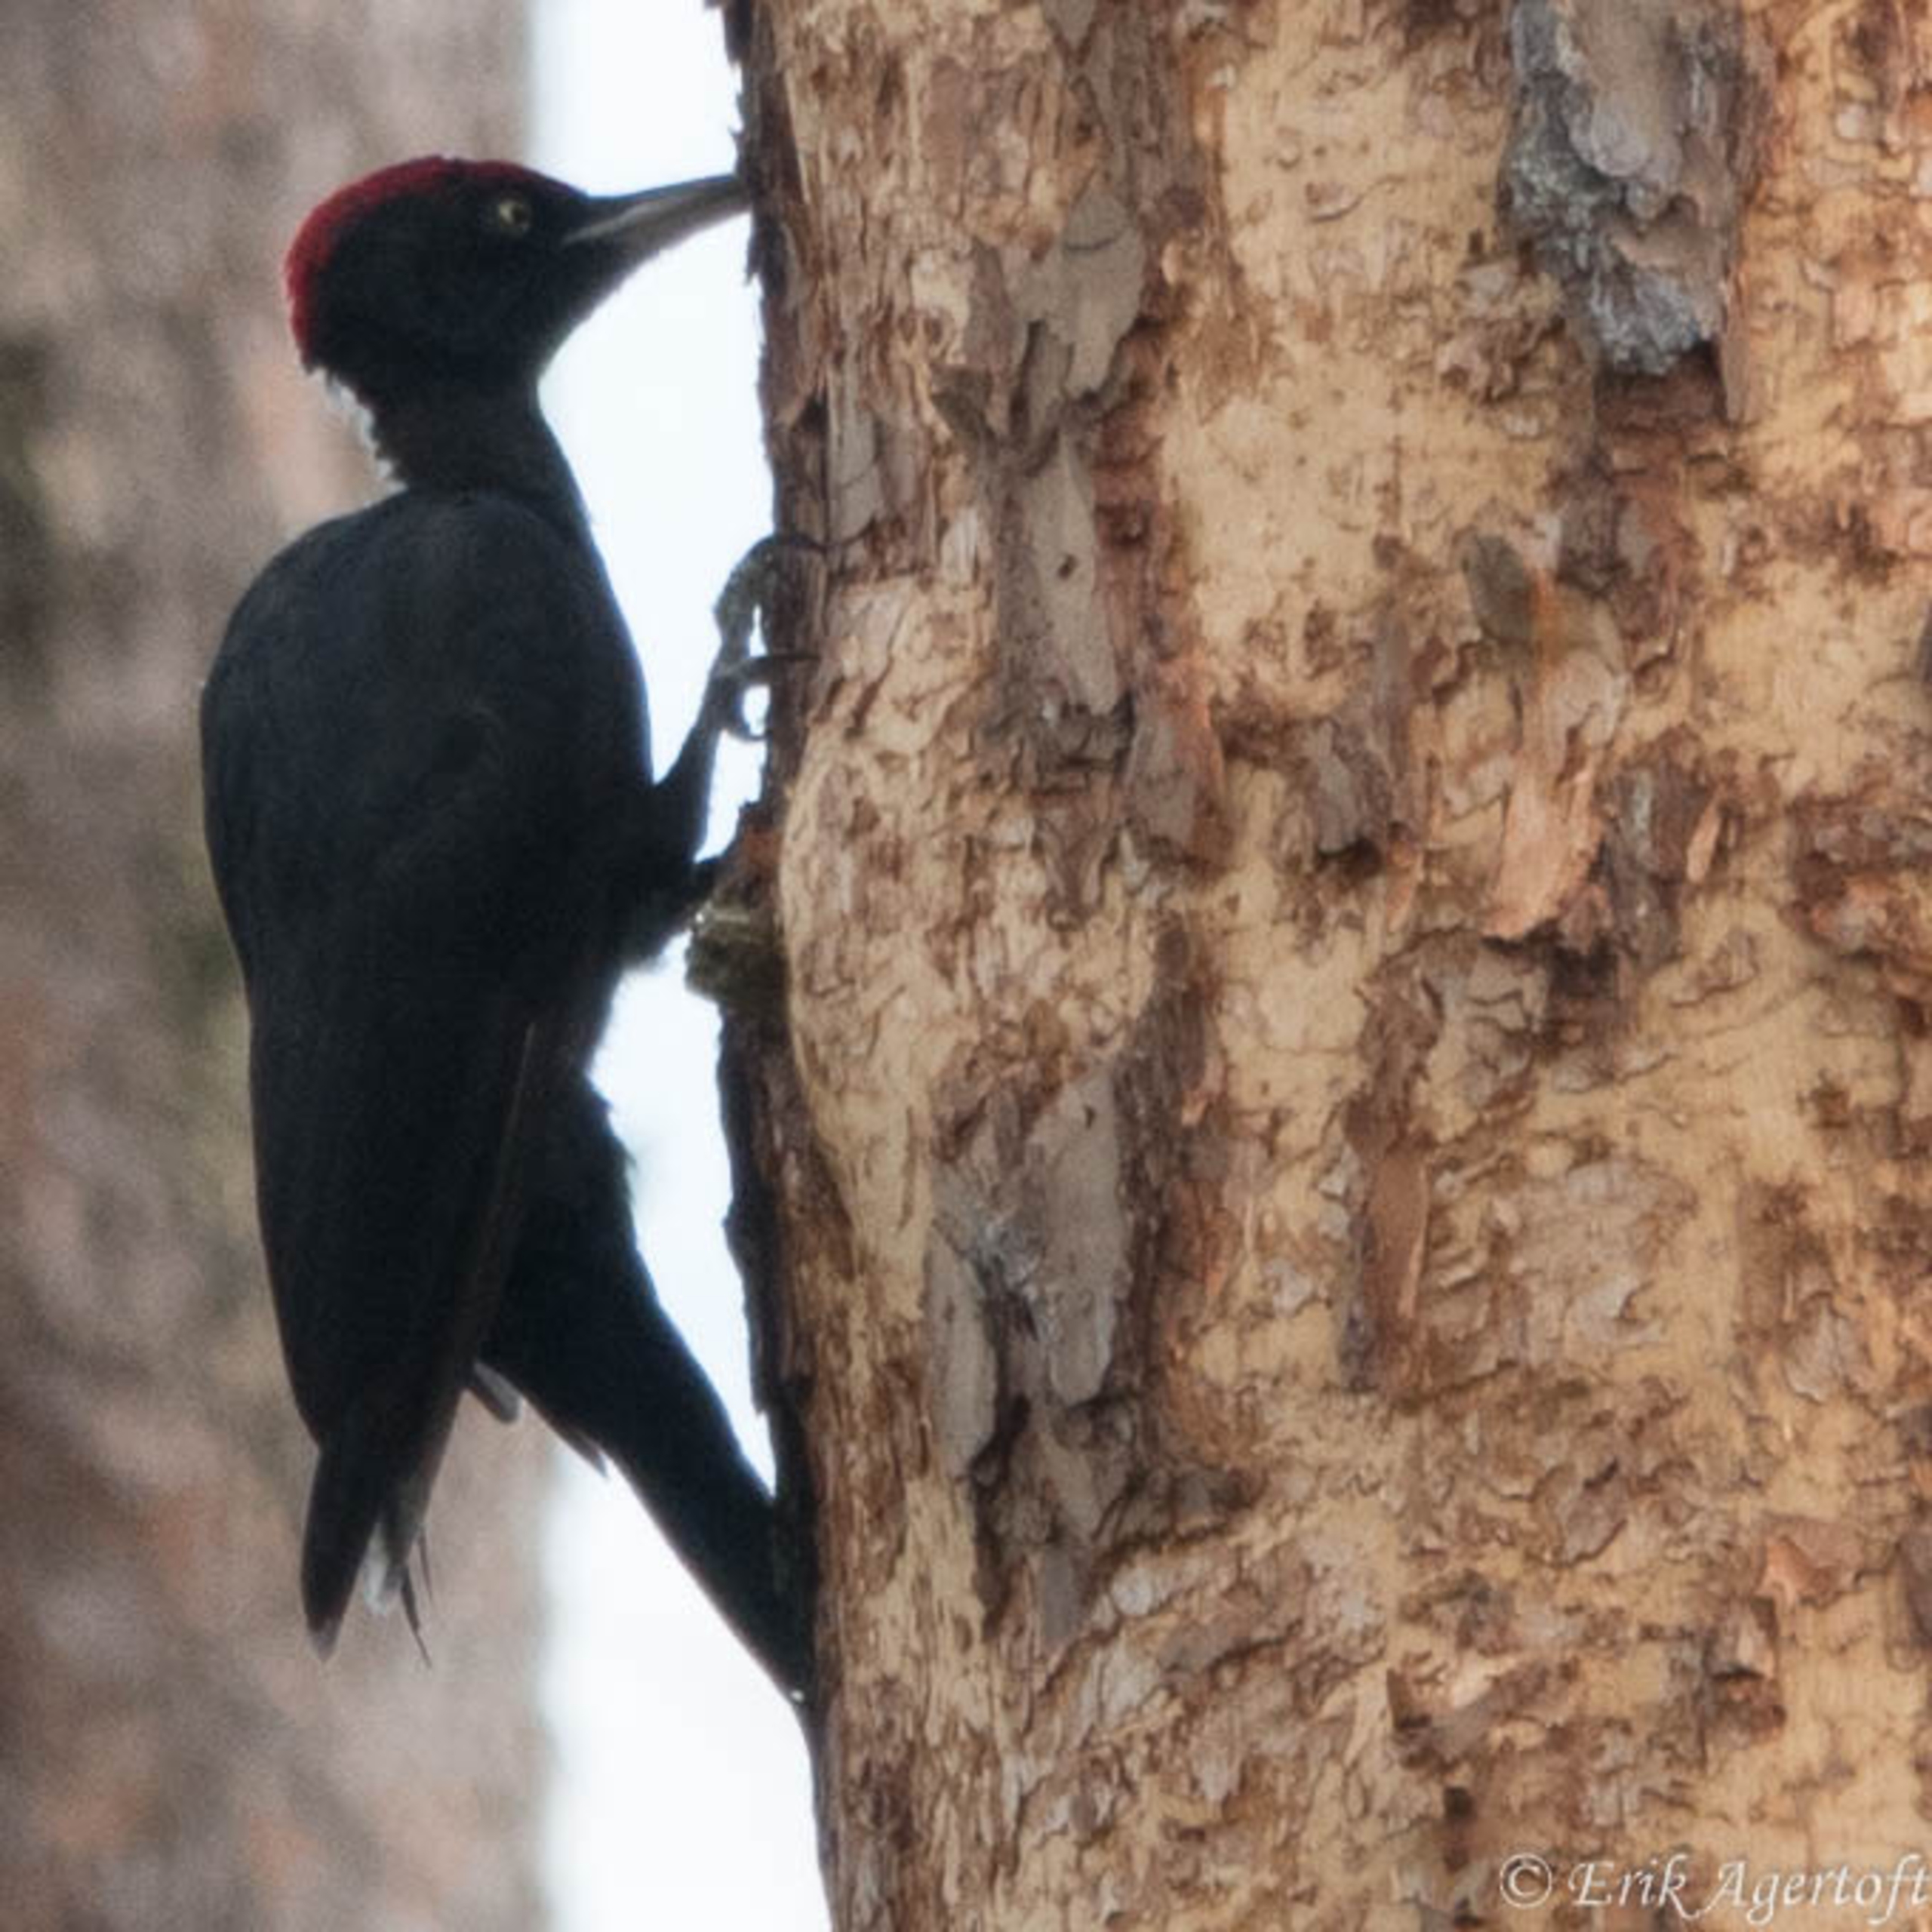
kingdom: Animalia
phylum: Chordata
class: Aves
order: Piciformes
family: Picidae
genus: Dryocopus
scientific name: Dryocopus martius
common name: Sortspætte
